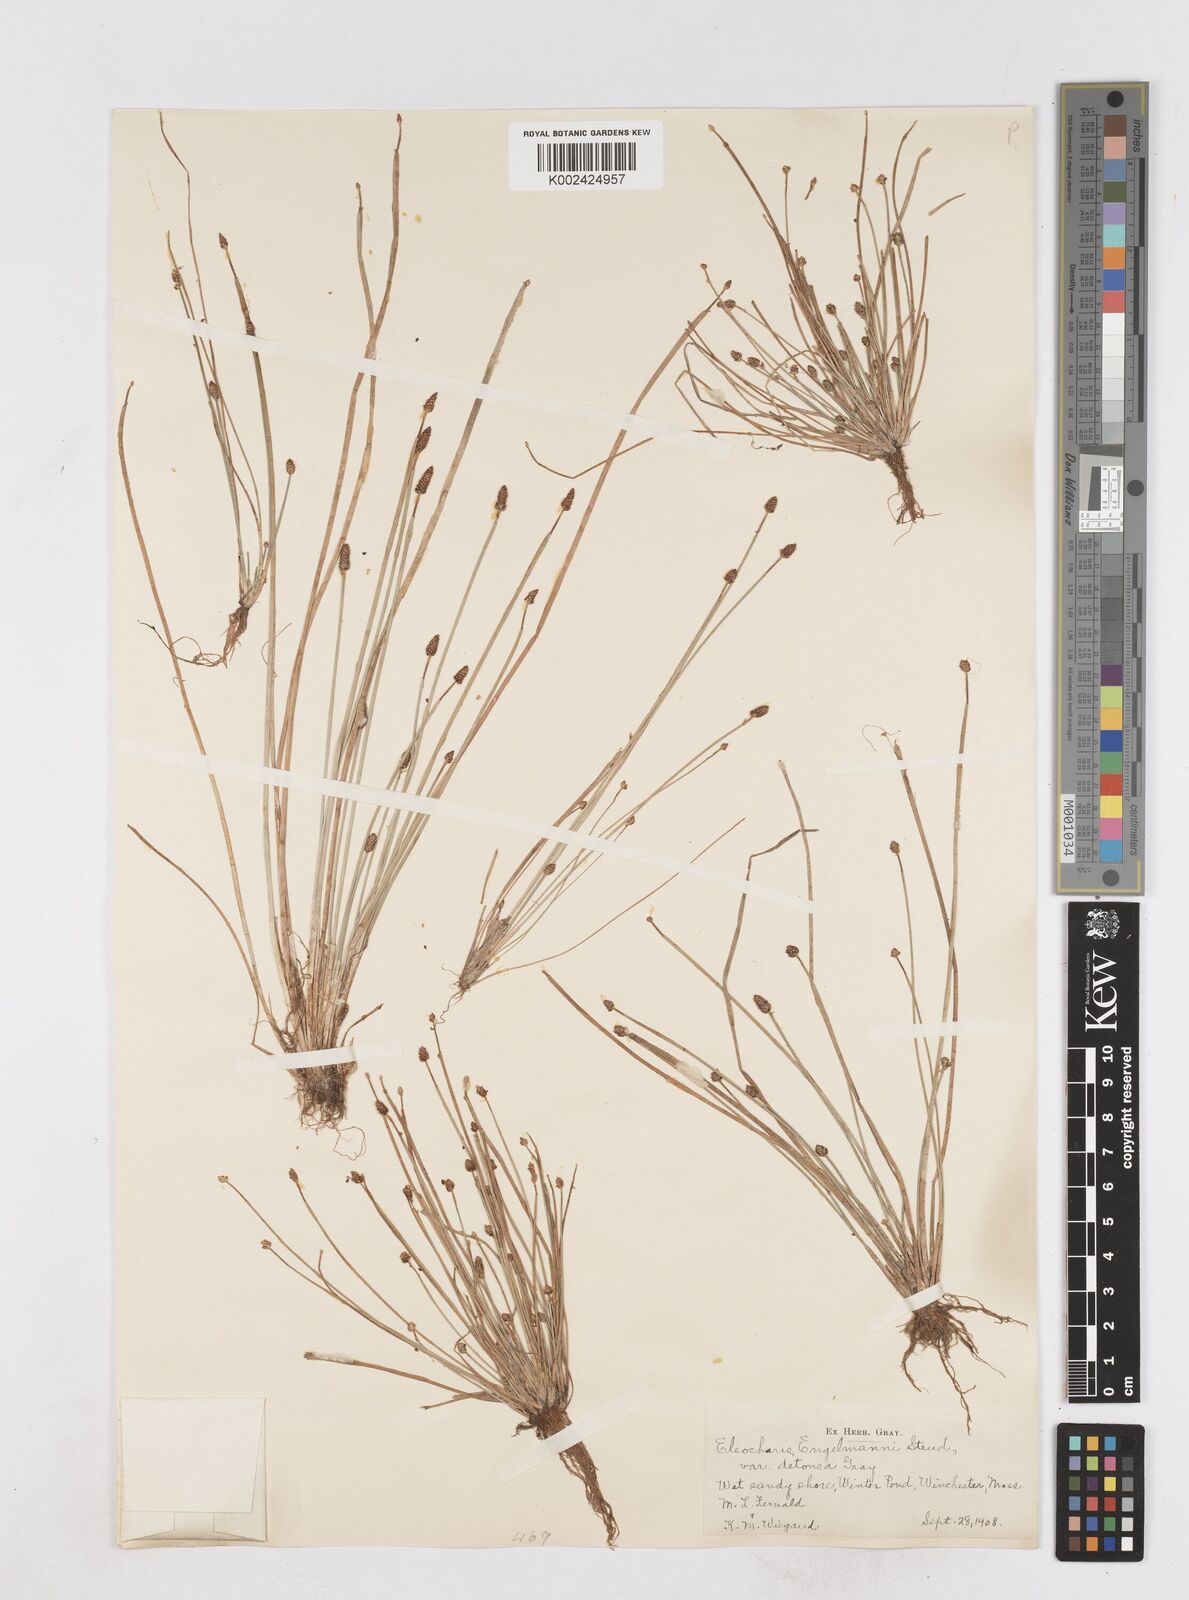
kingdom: Plantae
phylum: Tracheophyta
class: Liliopsida
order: Poales
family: Cyperaceae
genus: Eleocharis
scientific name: Eleocharis engelmannii
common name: Engelmann's spikerush
